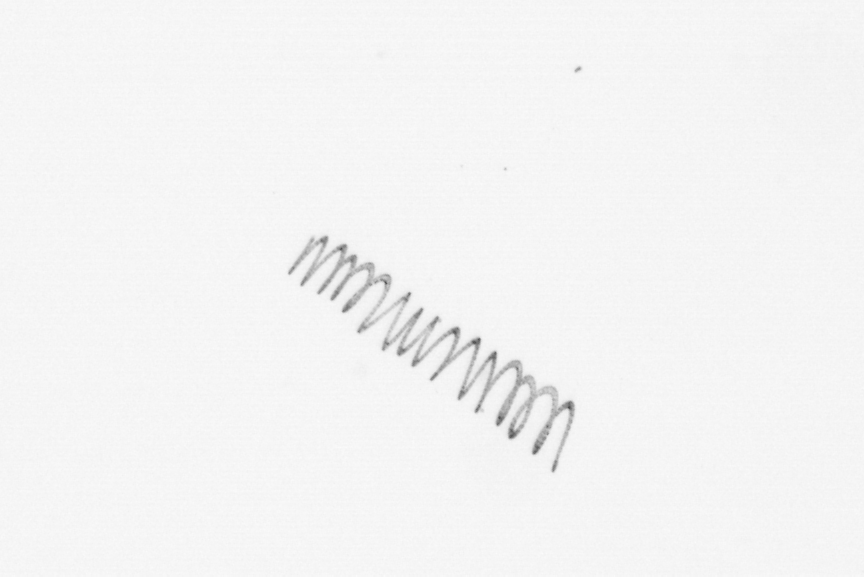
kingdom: Chromista
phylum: Ochrophyta
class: Bacillariophyceae
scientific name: Bacillariophyceae
